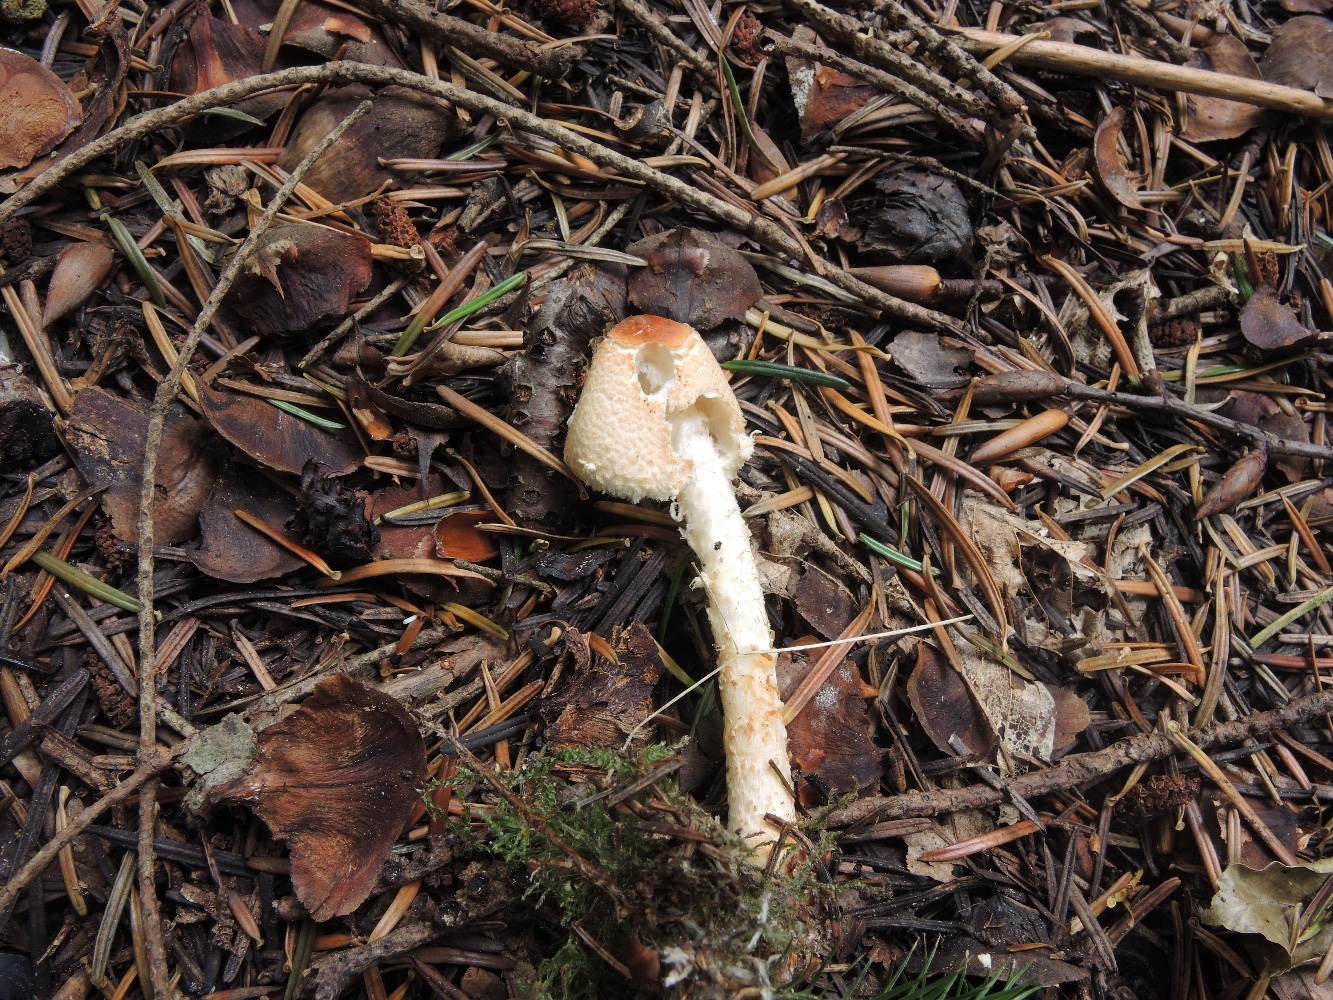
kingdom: Fungi
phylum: Basidiomycota
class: Agaricomycetes
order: Agaricales
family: Agaricaceae
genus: Lepiota
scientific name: Lepiota magnispora
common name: gulfnugget parasolhat
